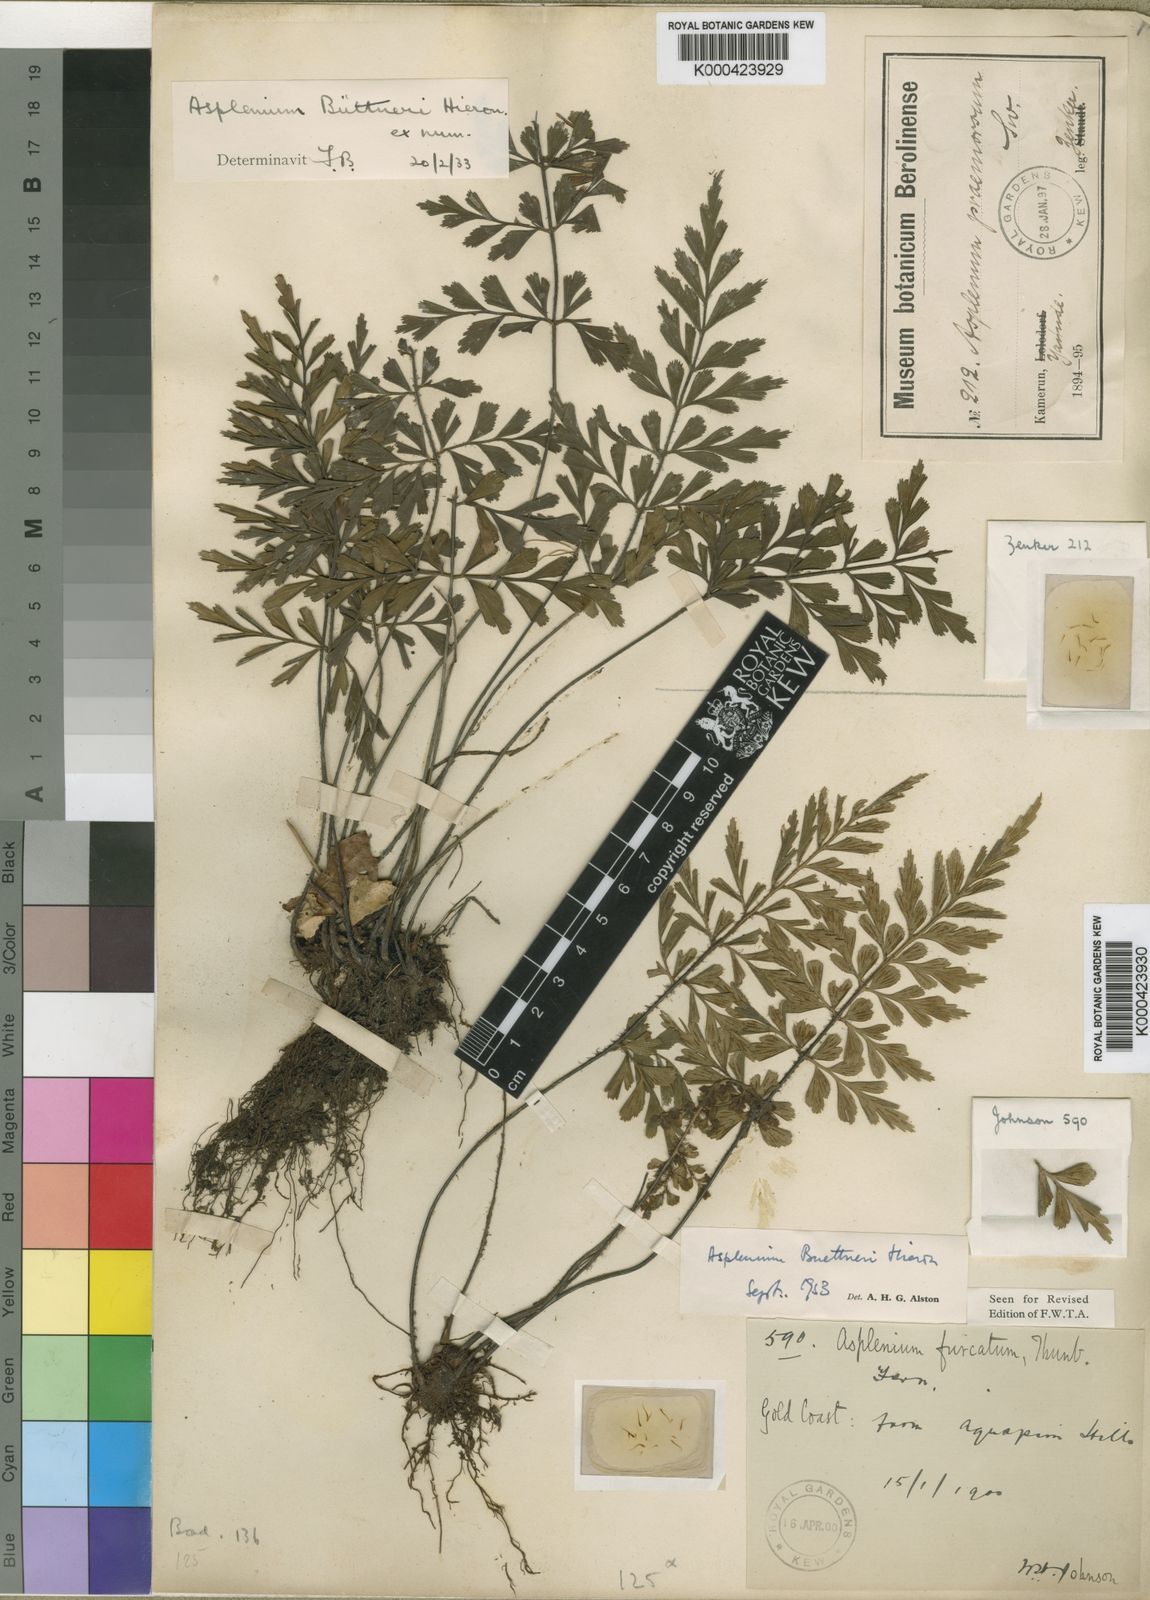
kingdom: Plantae
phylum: Tracheophyta
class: Polypodiopsida
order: Polypodiales
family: Aspleniaceae
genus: Asplenium
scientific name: Asplenium
